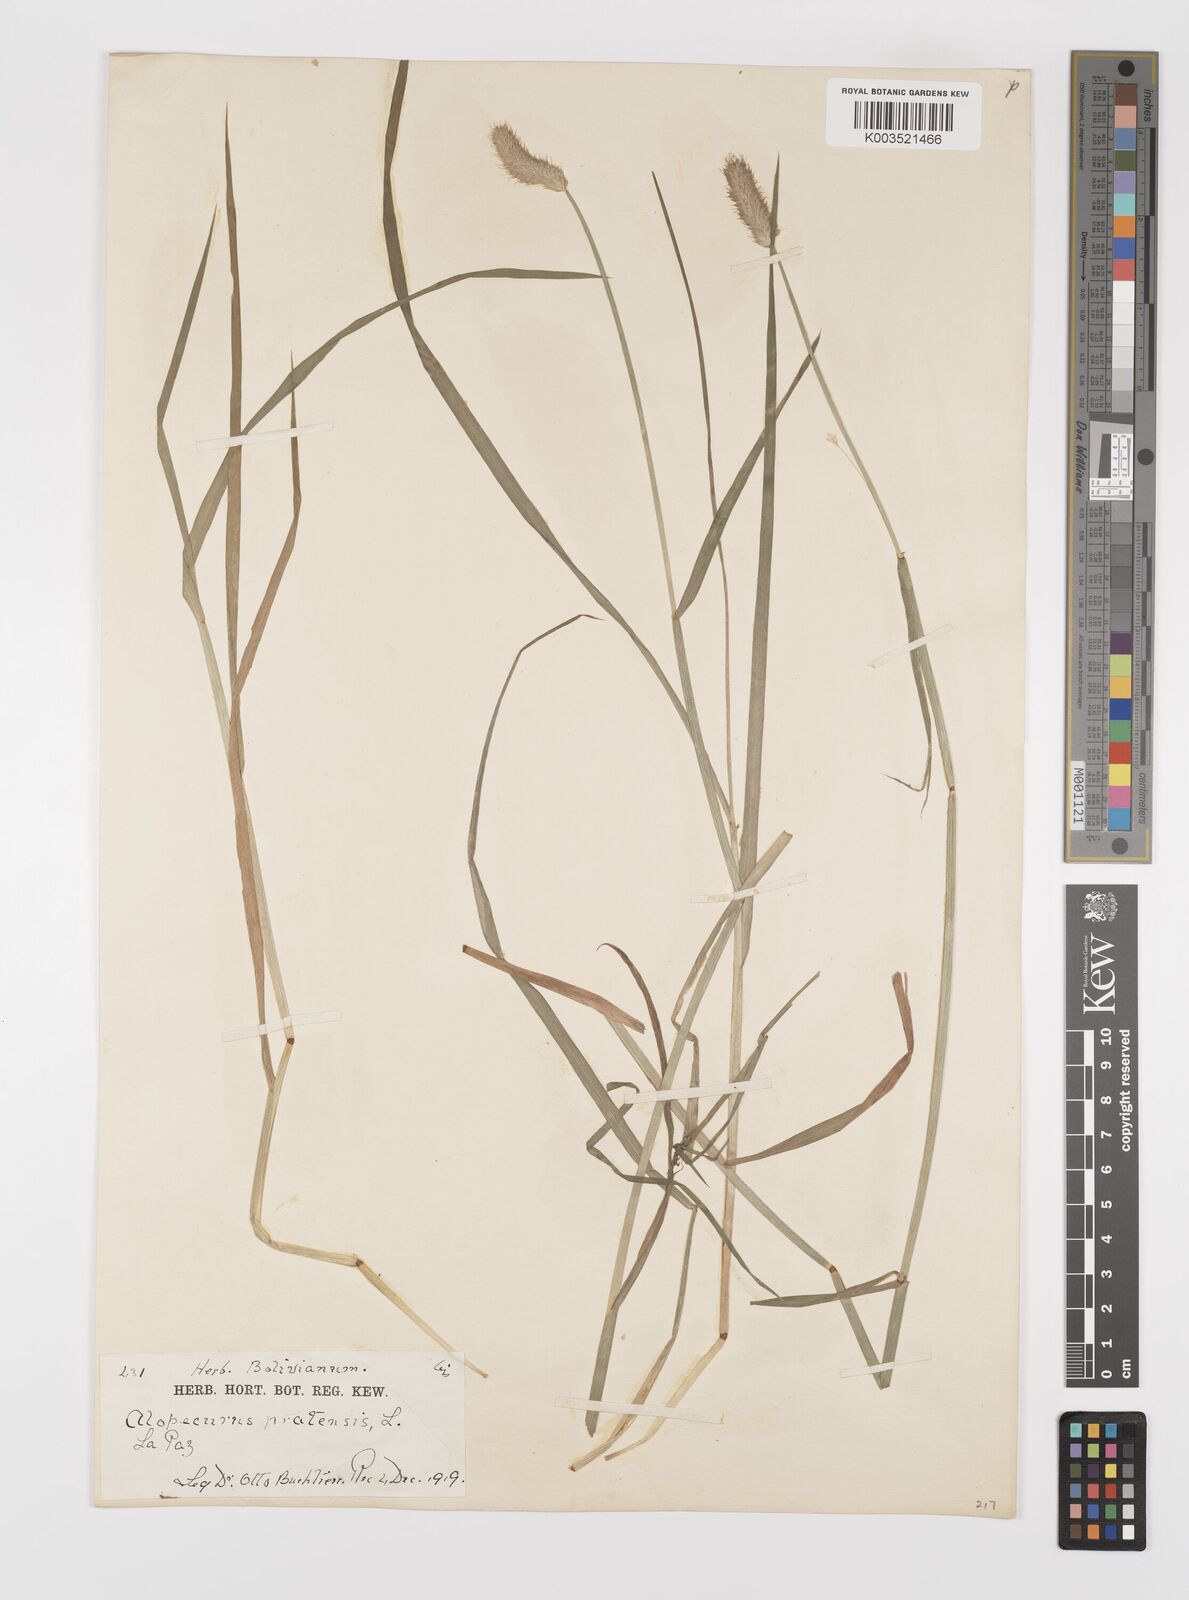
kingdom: Plantae
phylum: Tracheophyta
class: Liliopsida
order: Poales
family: Poaceae
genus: Alopecurus
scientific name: Alopecurus magellanicus
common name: Alpine foxtail
